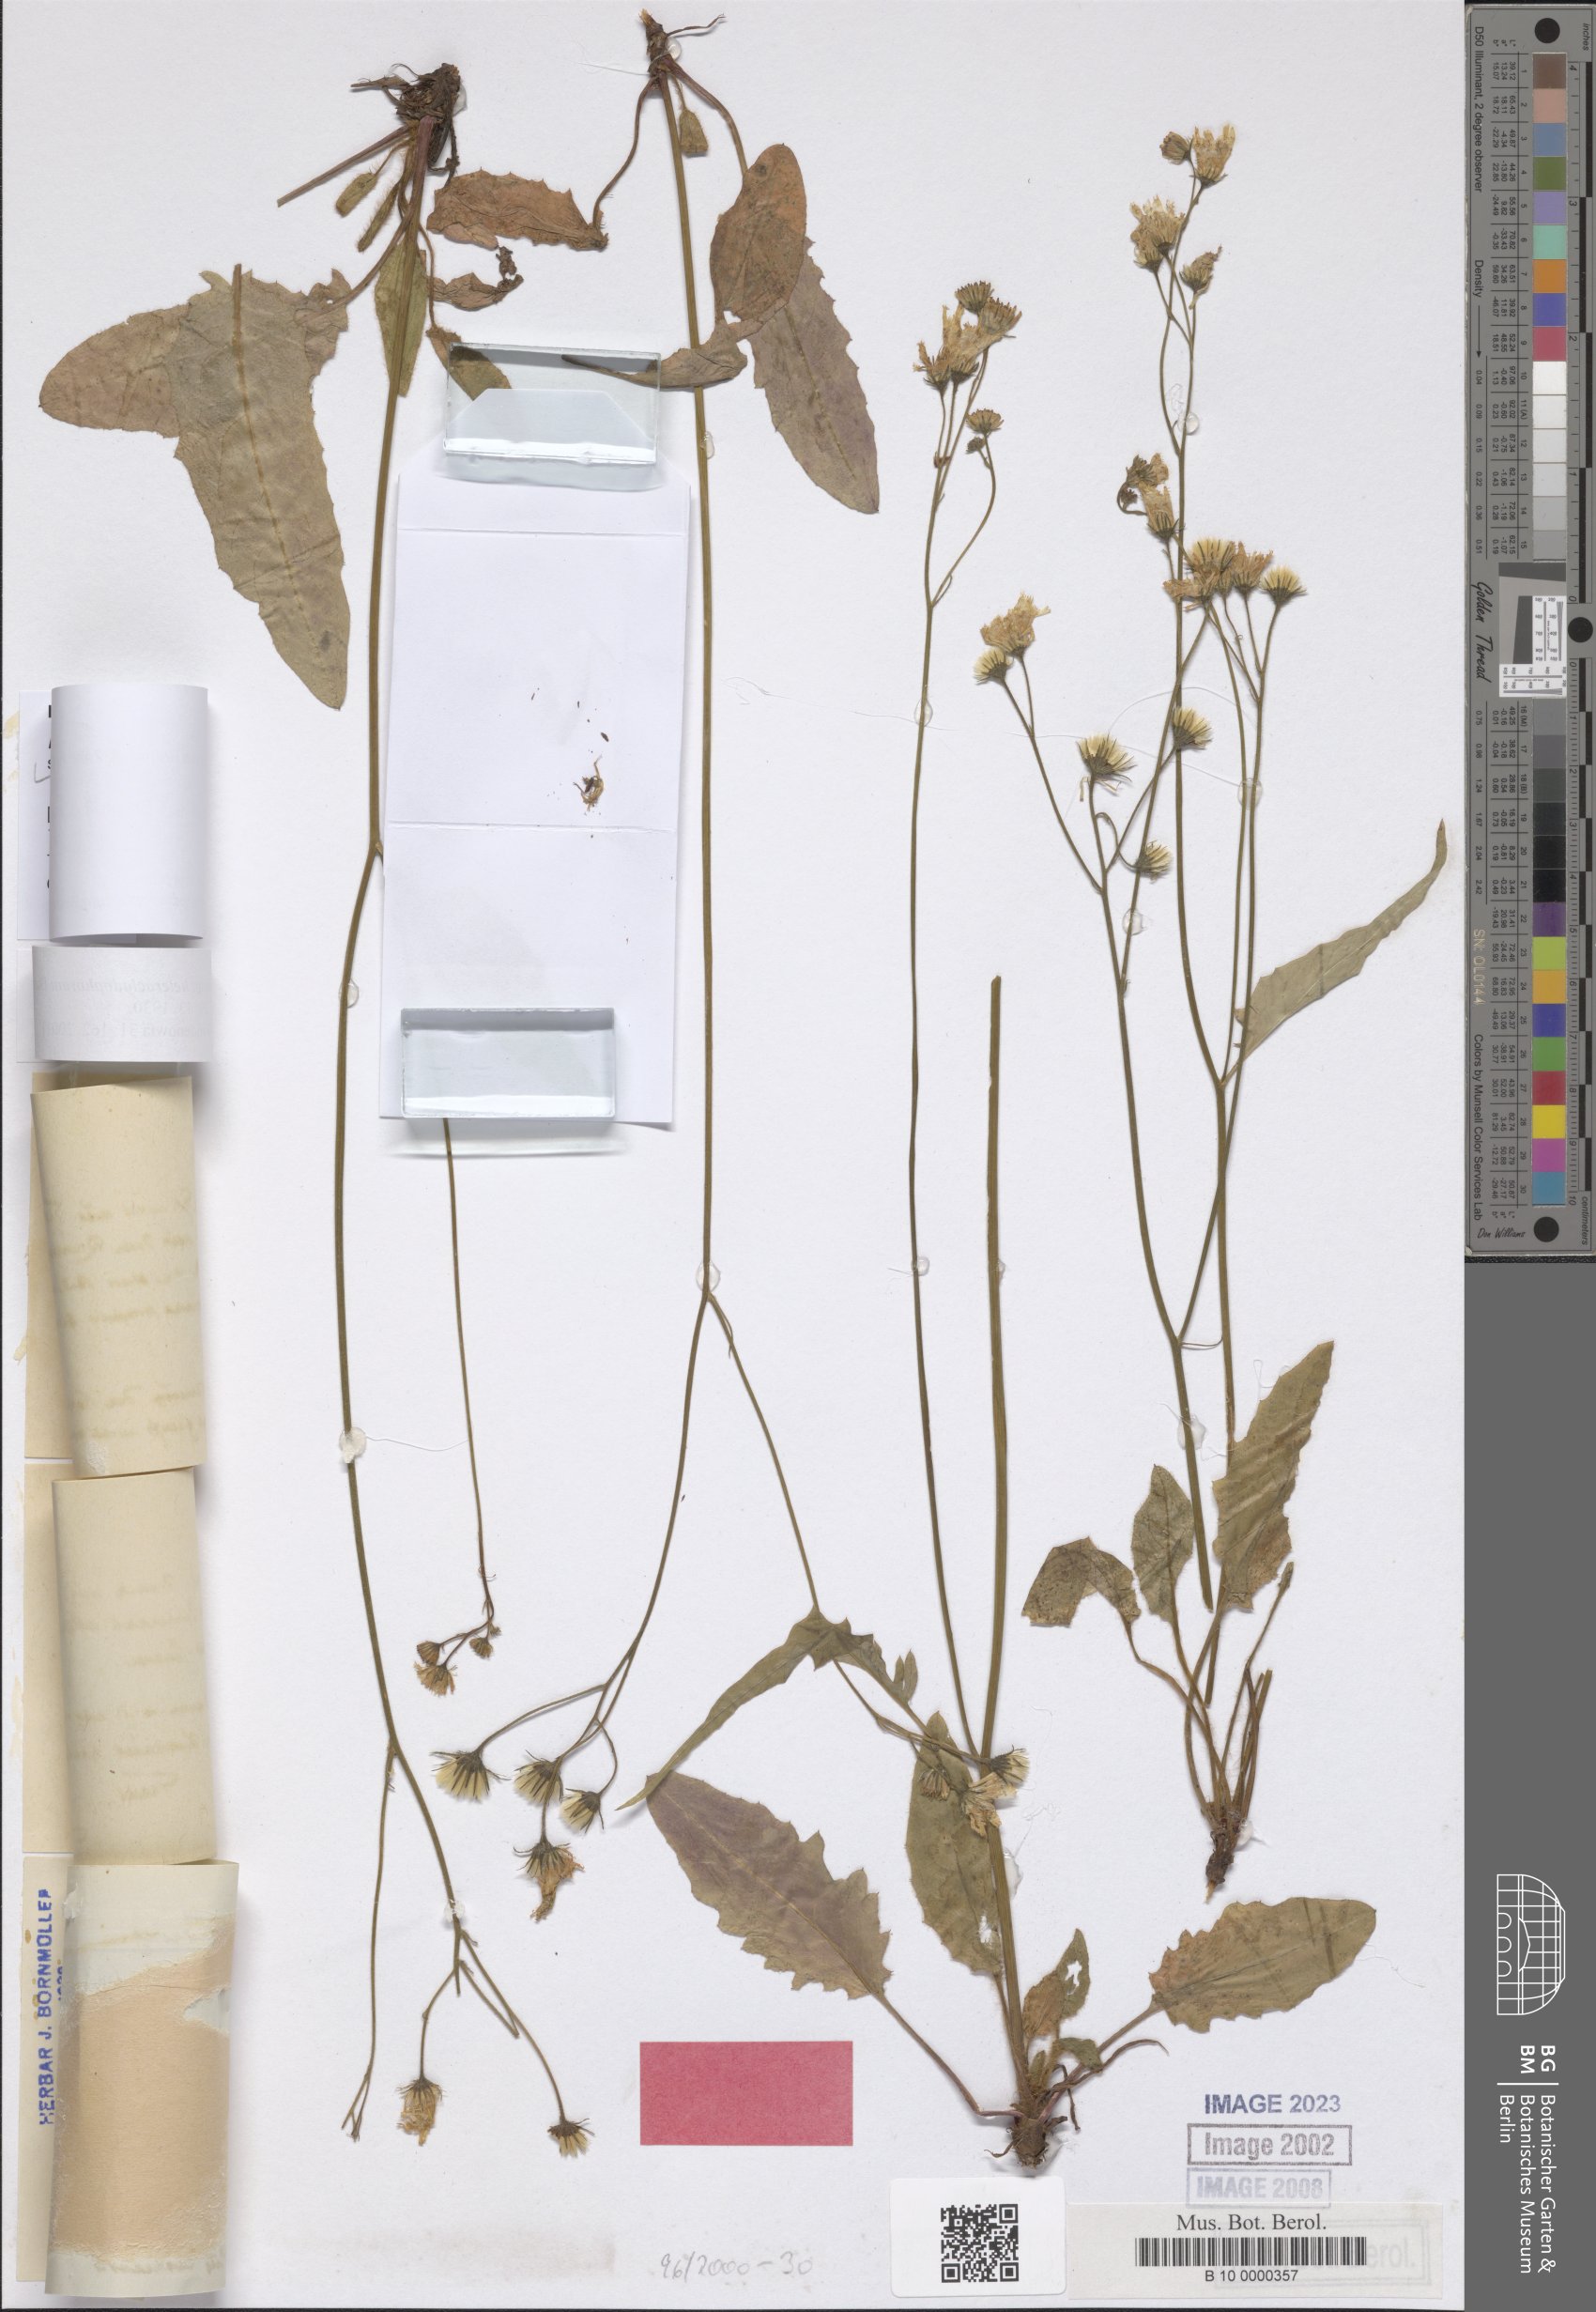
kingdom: Plantae
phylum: Tracheophyta
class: Magnoliopsida
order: Asterales
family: Asteraceae
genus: Hieracium
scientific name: Hieracium murorum
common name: Wall hawkweed
